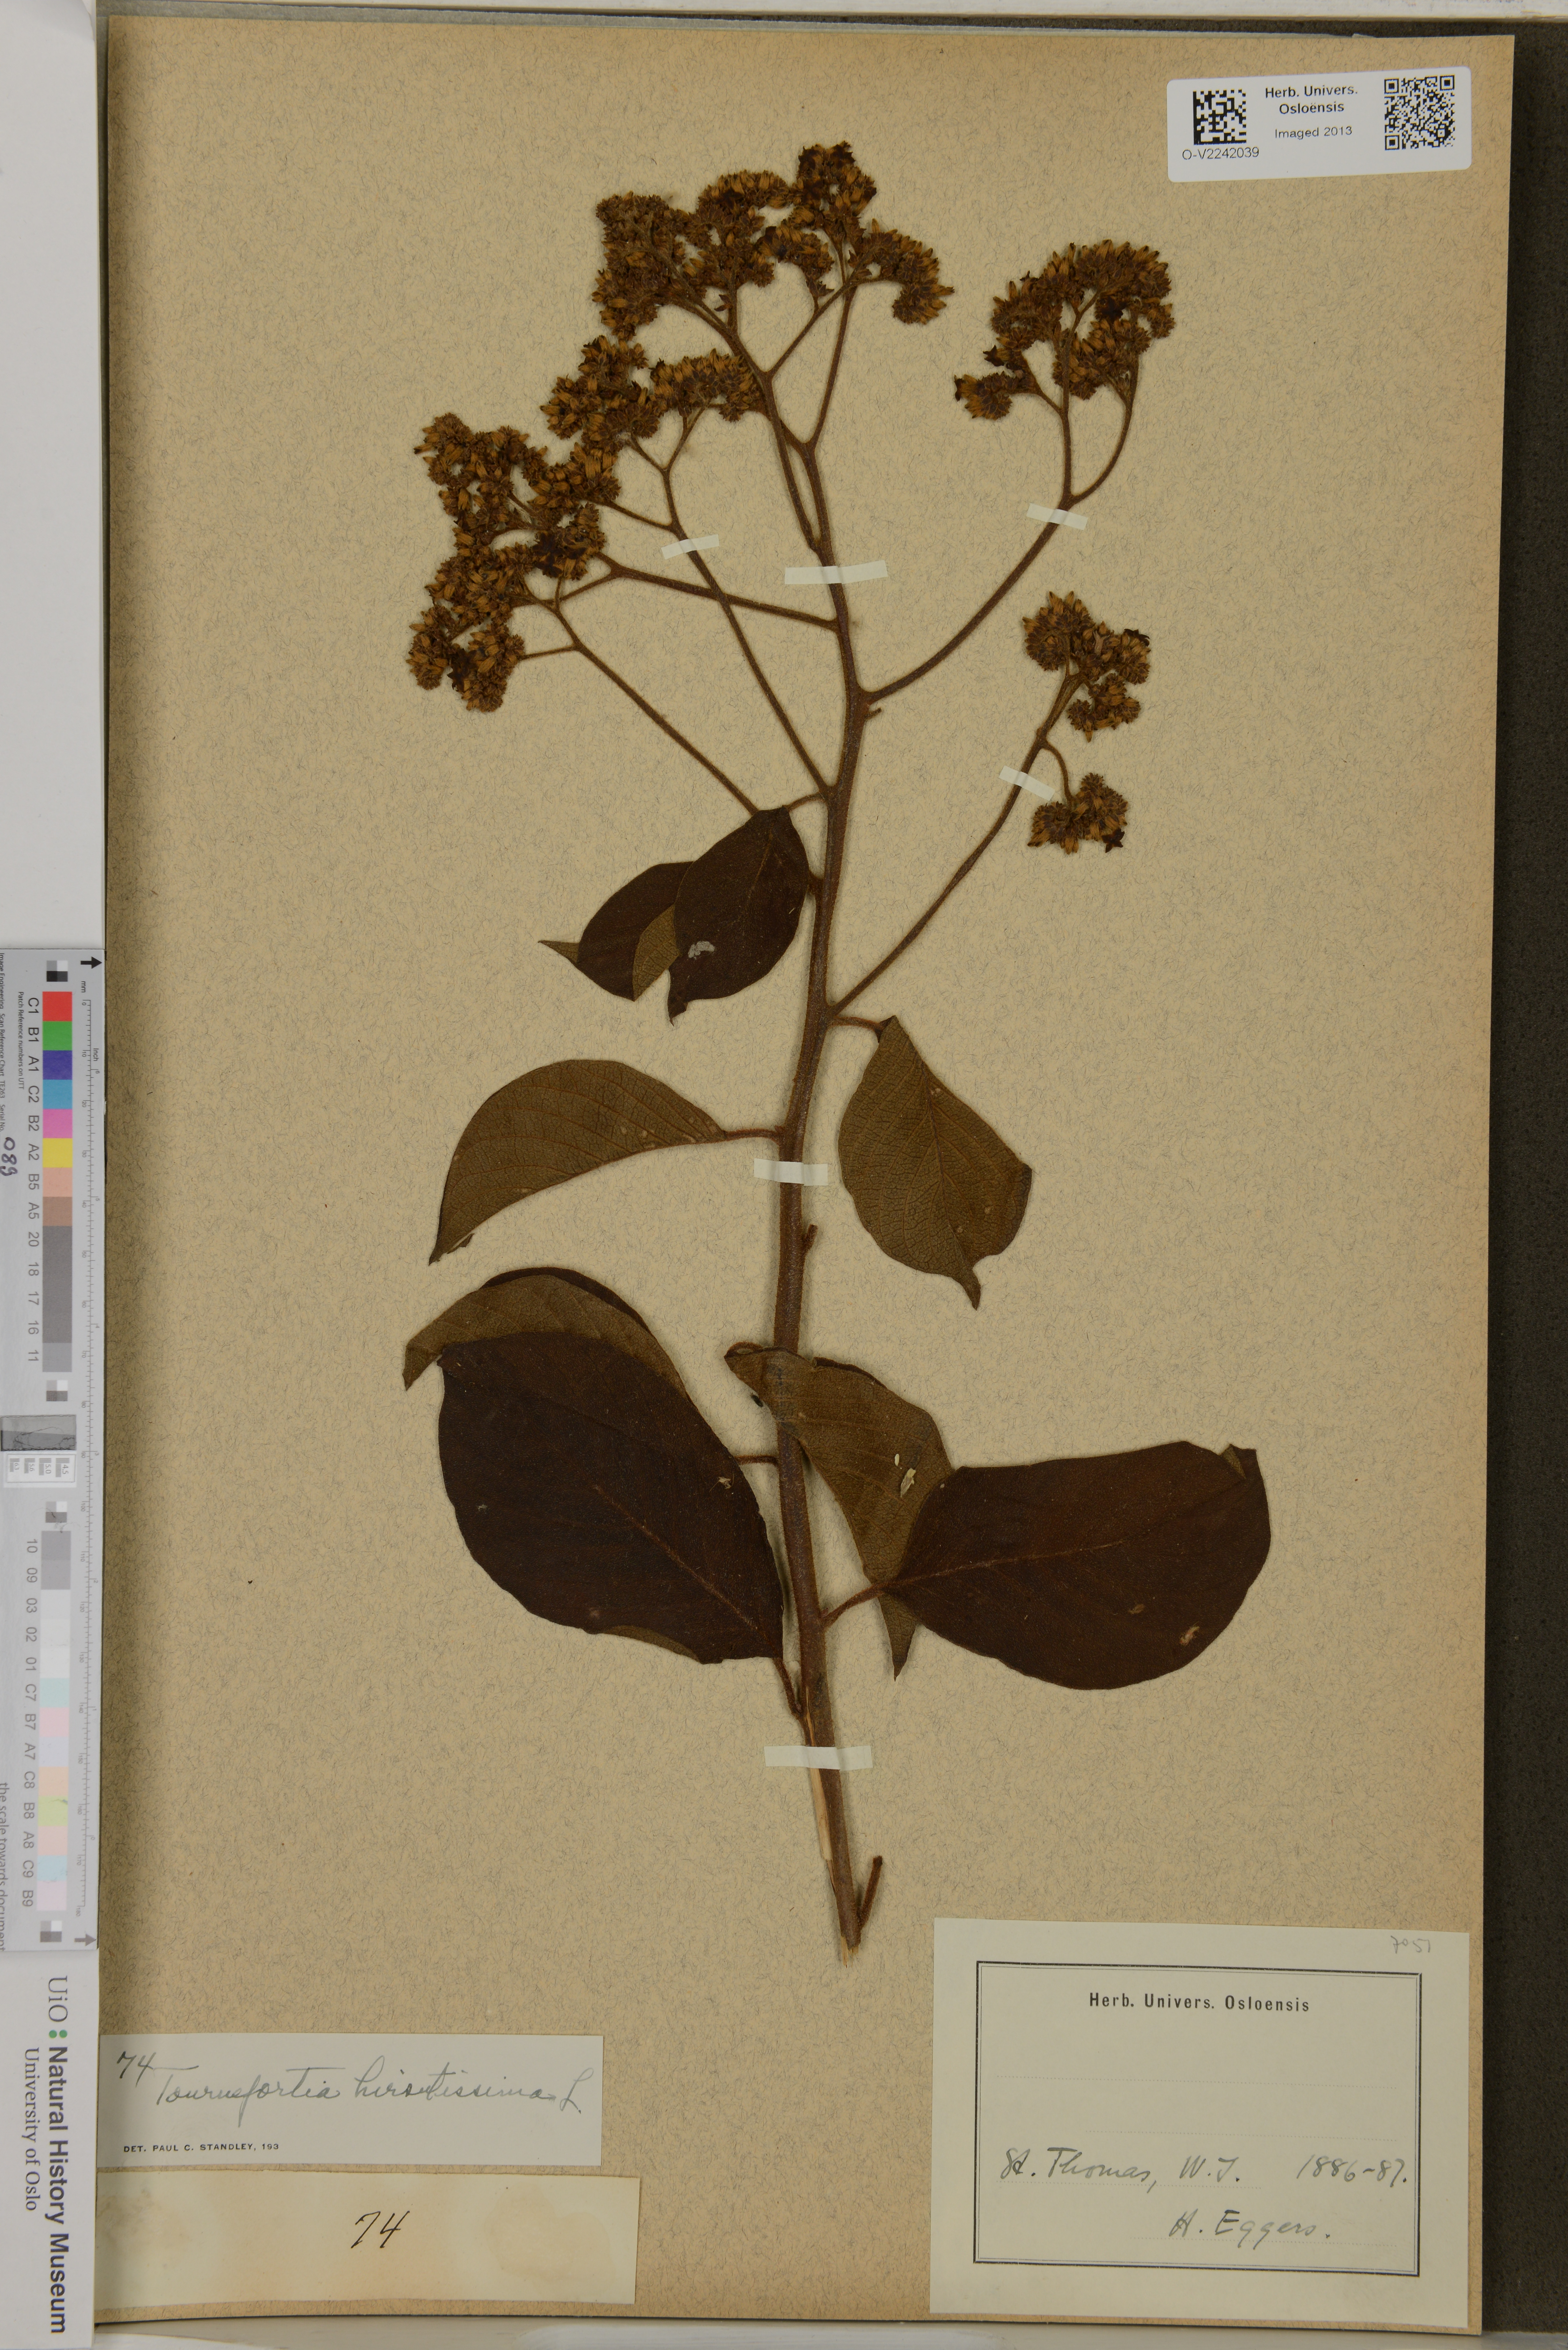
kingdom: Plantae
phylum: Tracheophyta
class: Magnoliopsida
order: Boraginales
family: Heliotropiaceae
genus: Heliotropium
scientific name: Heliotropium
